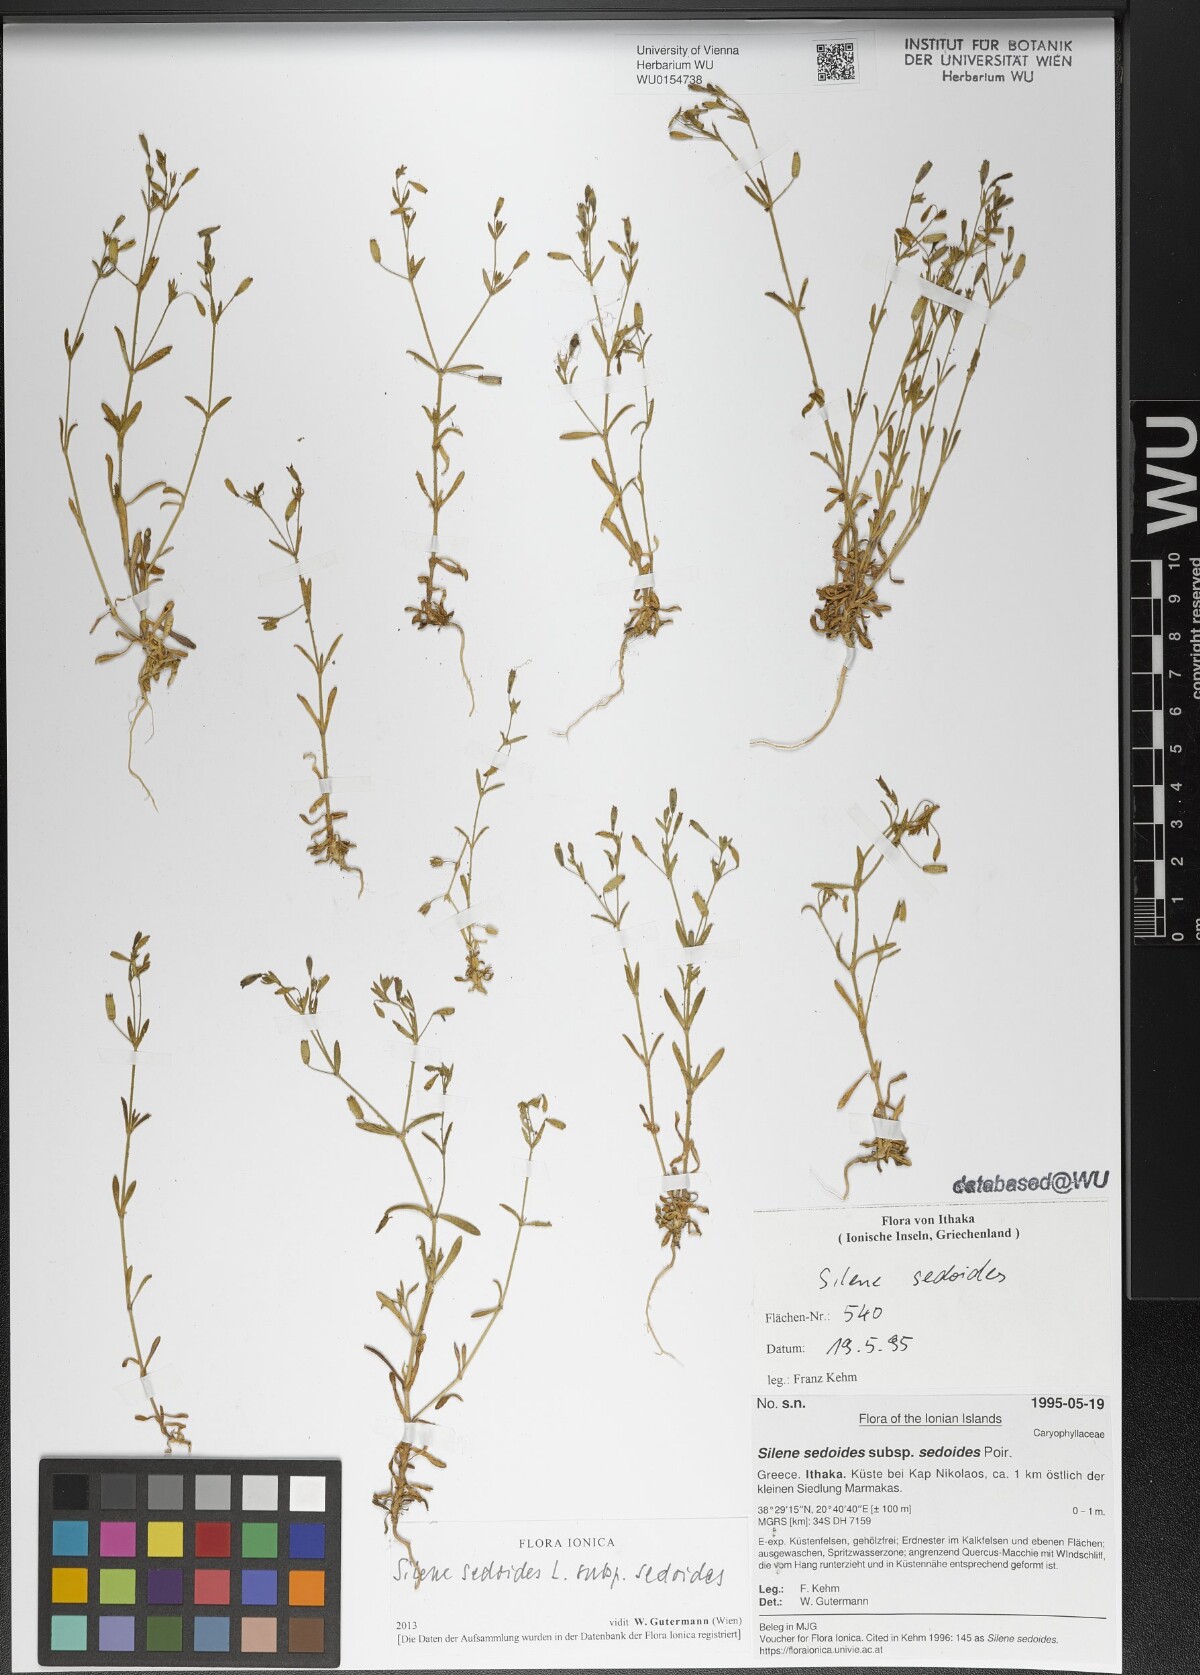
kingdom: Plantae
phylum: Tracheophyta
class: Magnoliopsida
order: Caryophyllales
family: Caryophyllaceae
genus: Silene
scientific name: Silene sedoides
